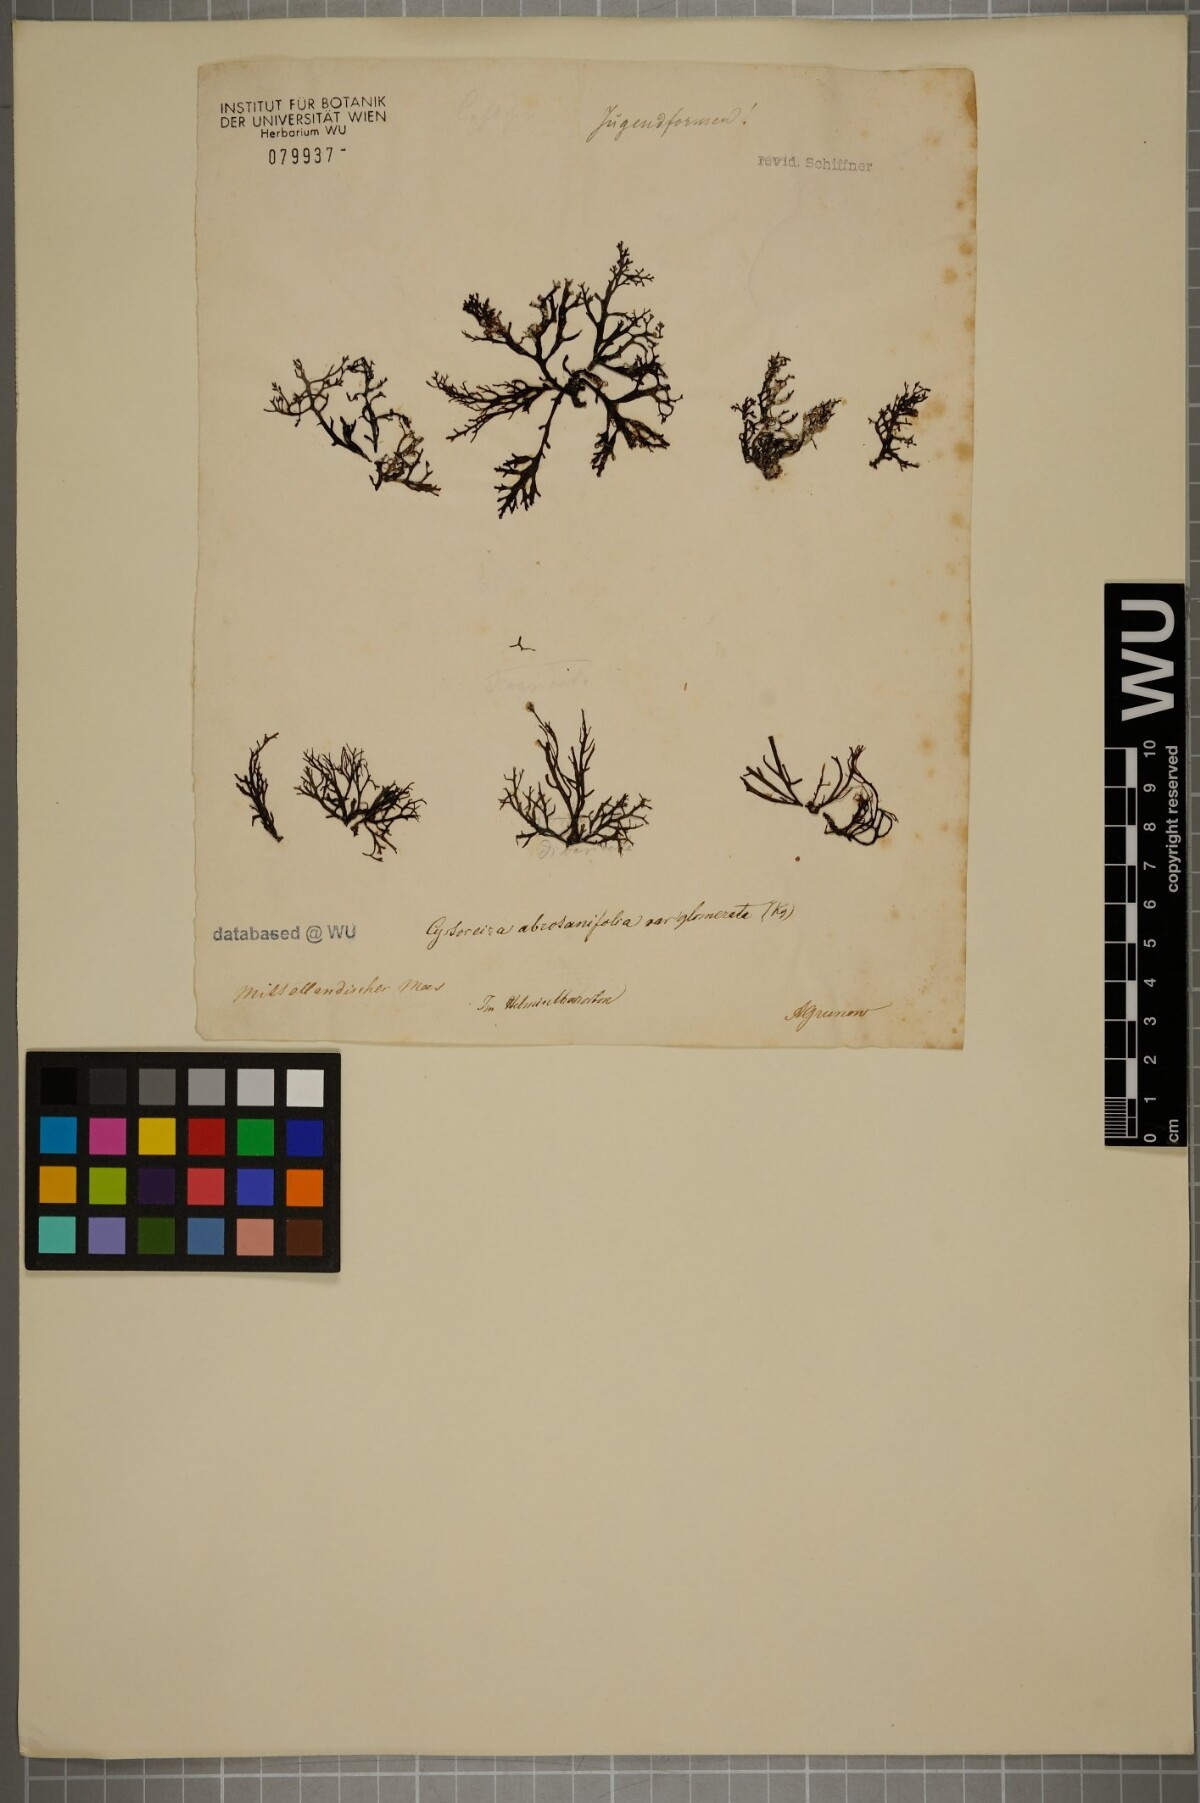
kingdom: Chromista
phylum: Ochrophyta
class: Phaeophyceae
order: Fucales
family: Sargassaceae
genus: Cystoseira
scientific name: Cystoseira foeniculacea
